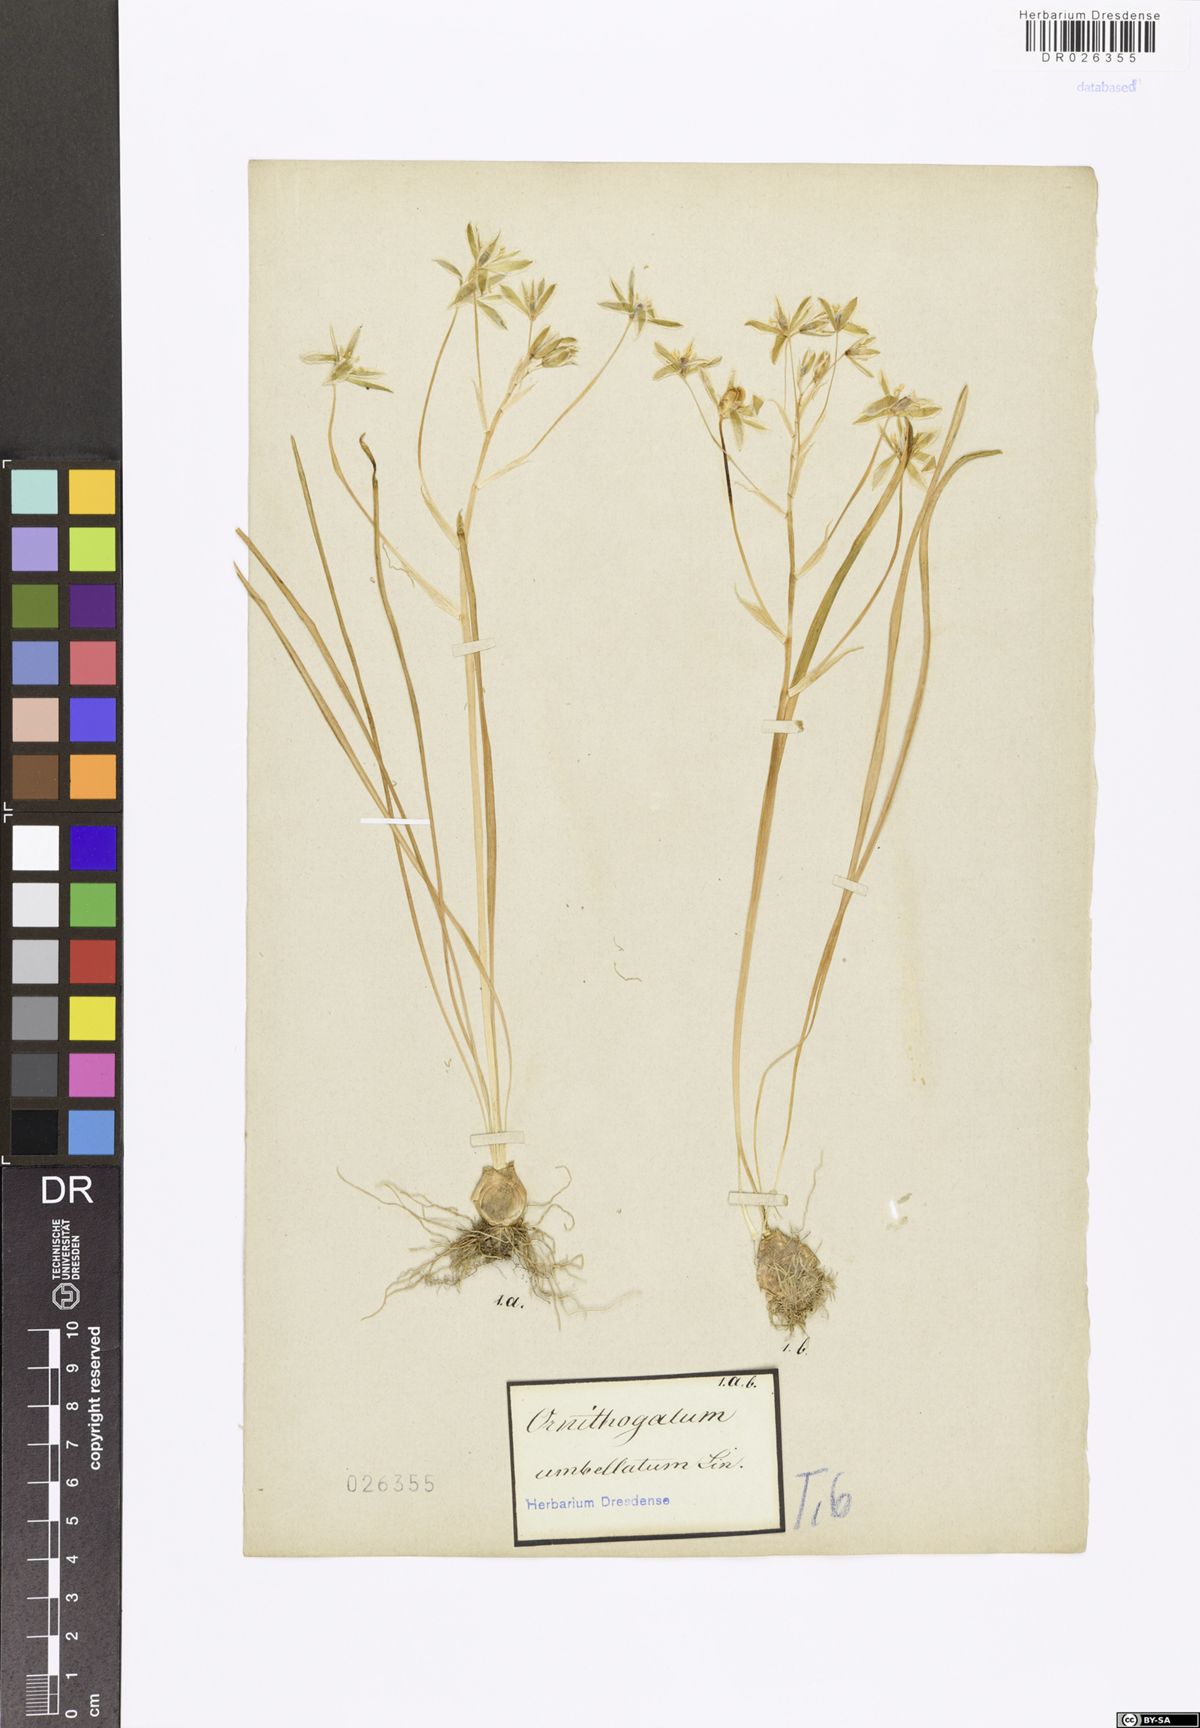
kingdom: Plantae
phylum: Tracheophyta
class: Liliopsida
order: Asparagales
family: Asparagaceae
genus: Ornithogalum
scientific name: Ornithogalum umbellatum
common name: Garden star-of-bethlehem
